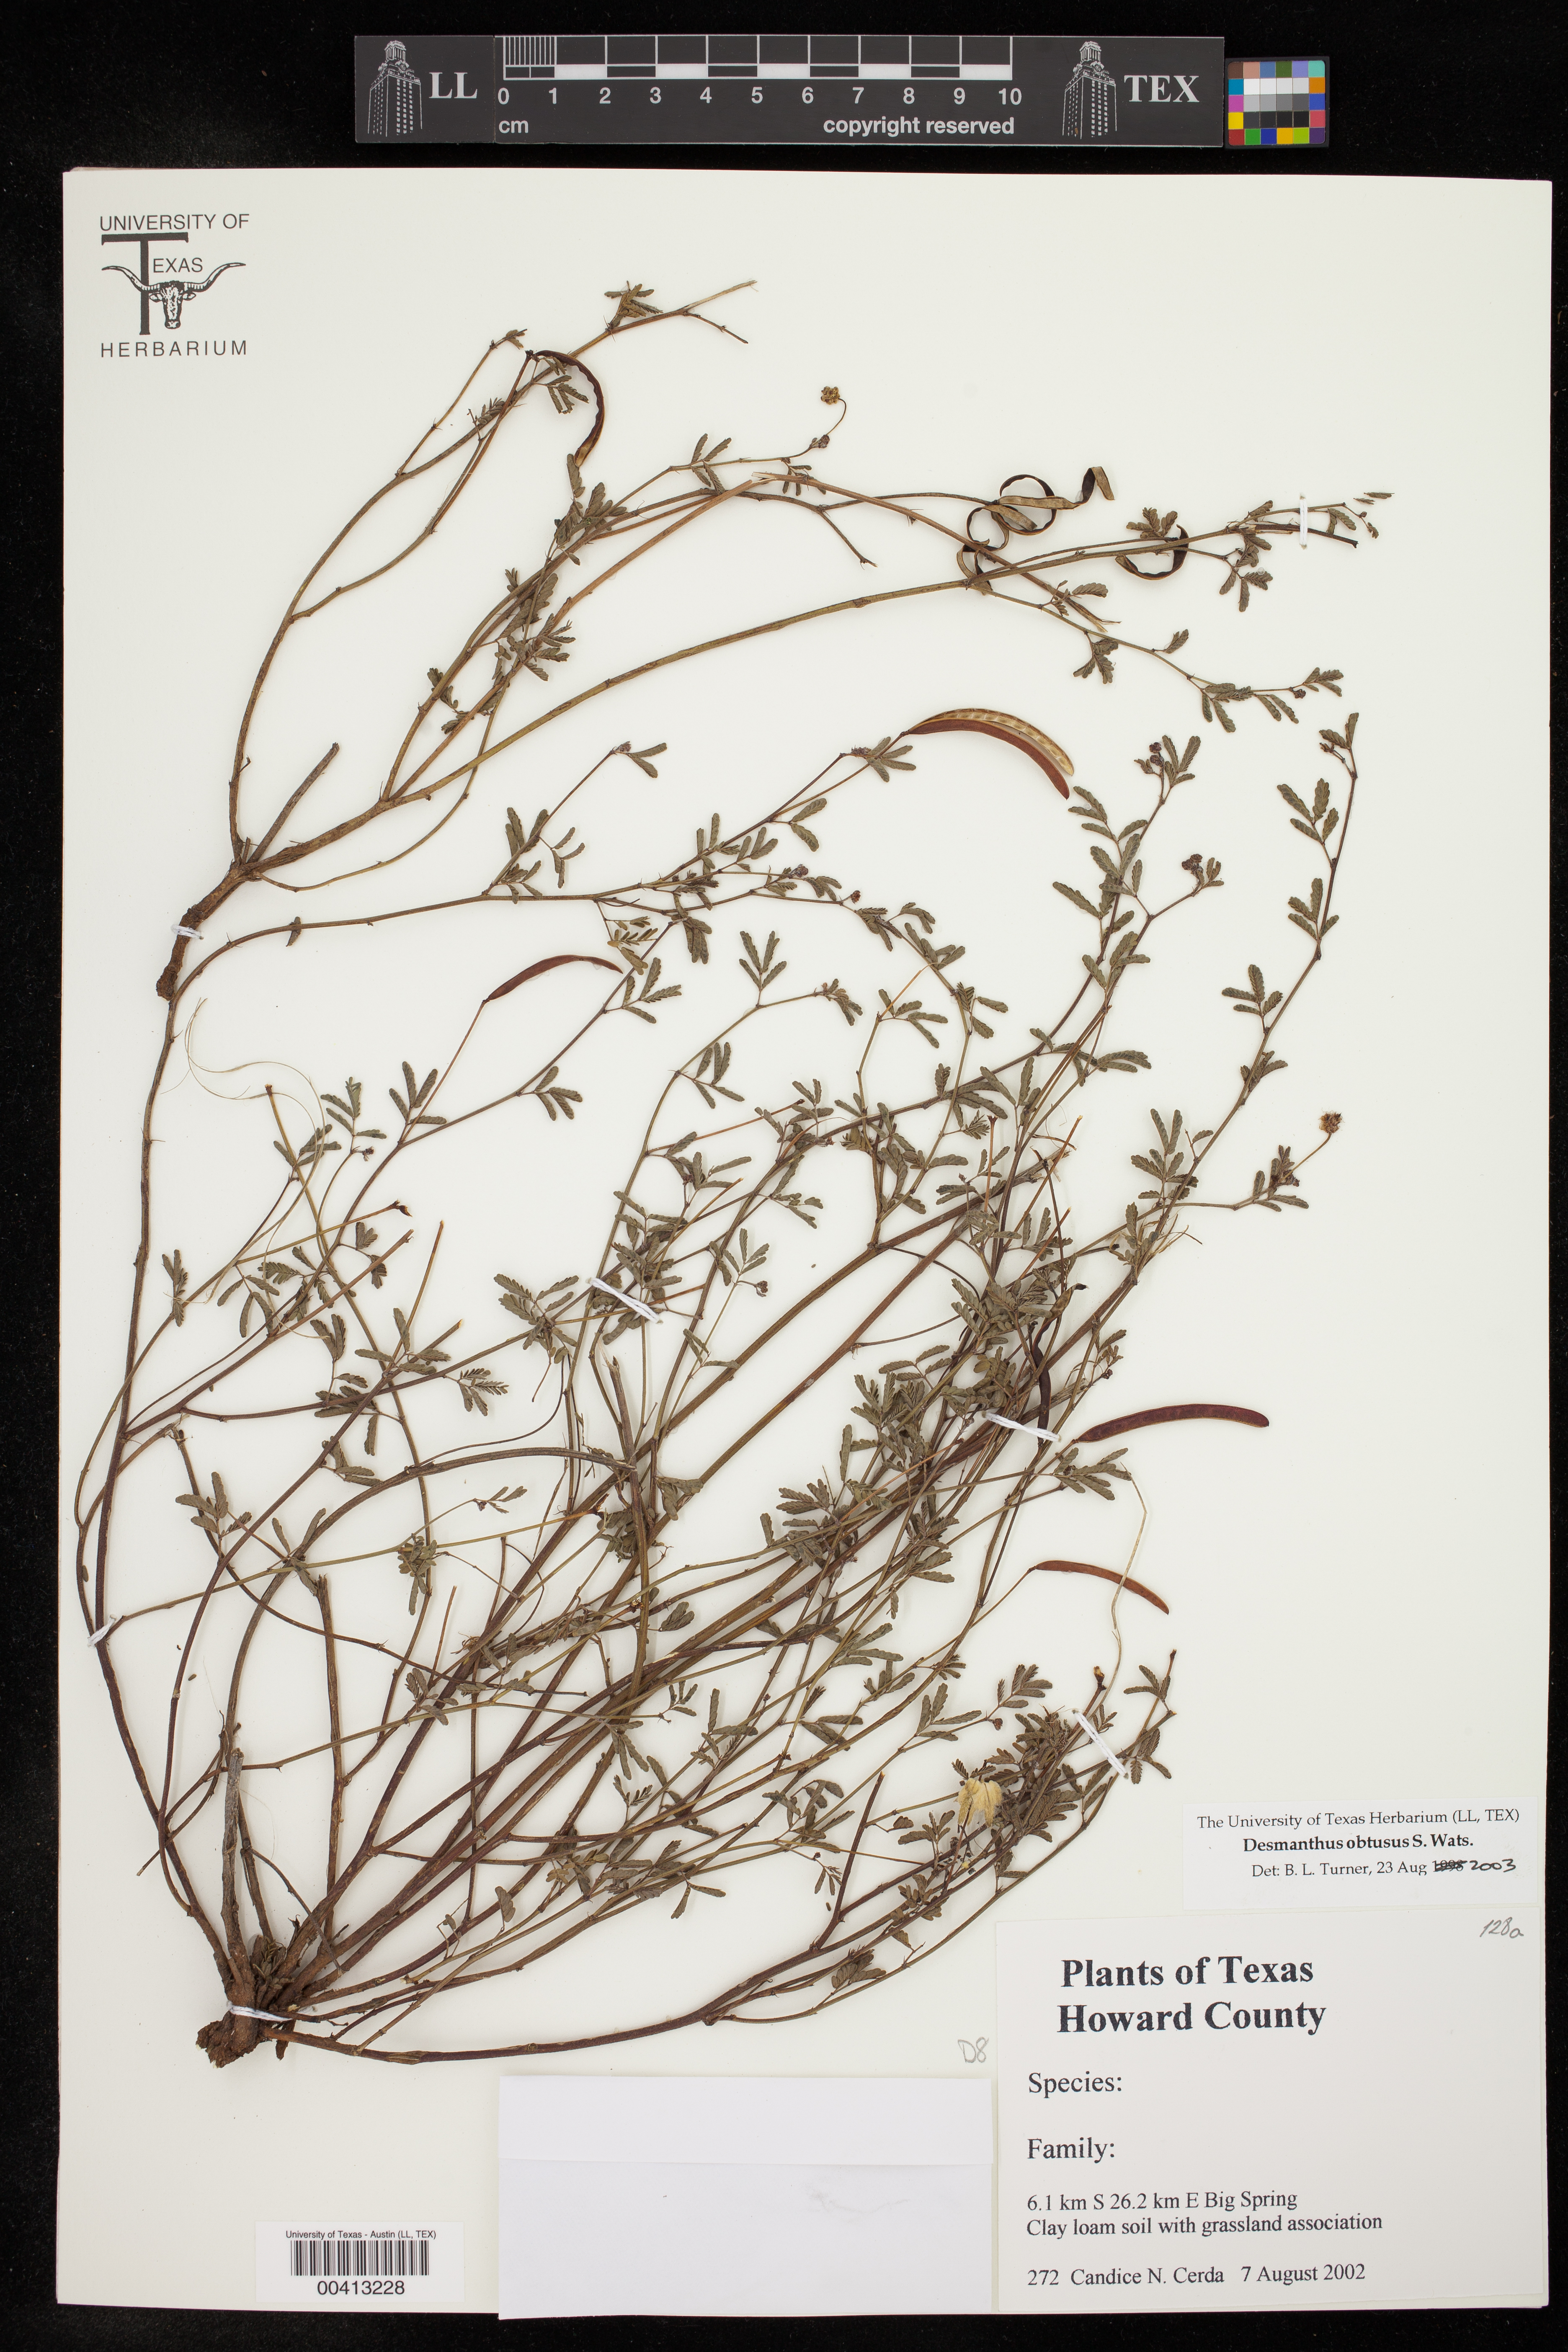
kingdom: Plantae
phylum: Tracheophyta
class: Magnoliopsida
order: Fabales
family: Fabaceae
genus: Desmanthus
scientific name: Desmanthus obtusus
